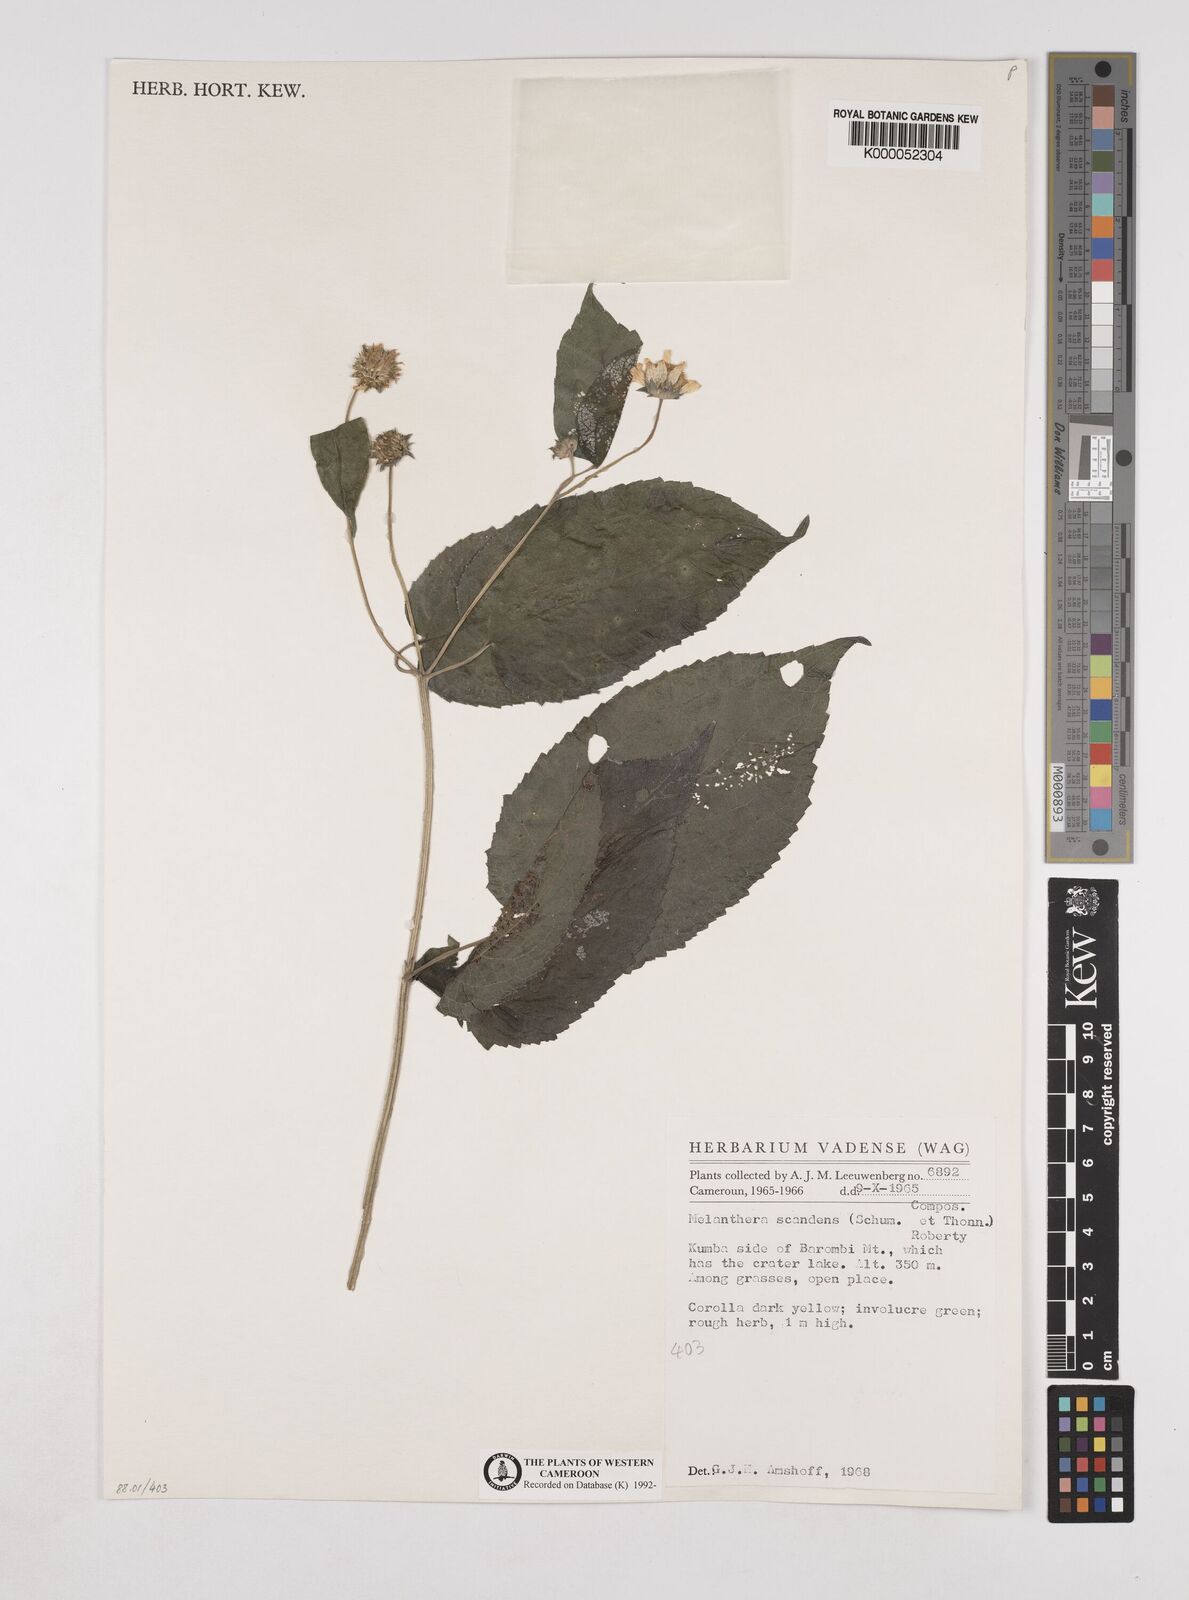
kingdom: Plantae
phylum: Tracheophyta
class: Magnoliopsida
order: Asterales
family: Asteraceae
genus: Melanthera
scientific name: Melanthera
